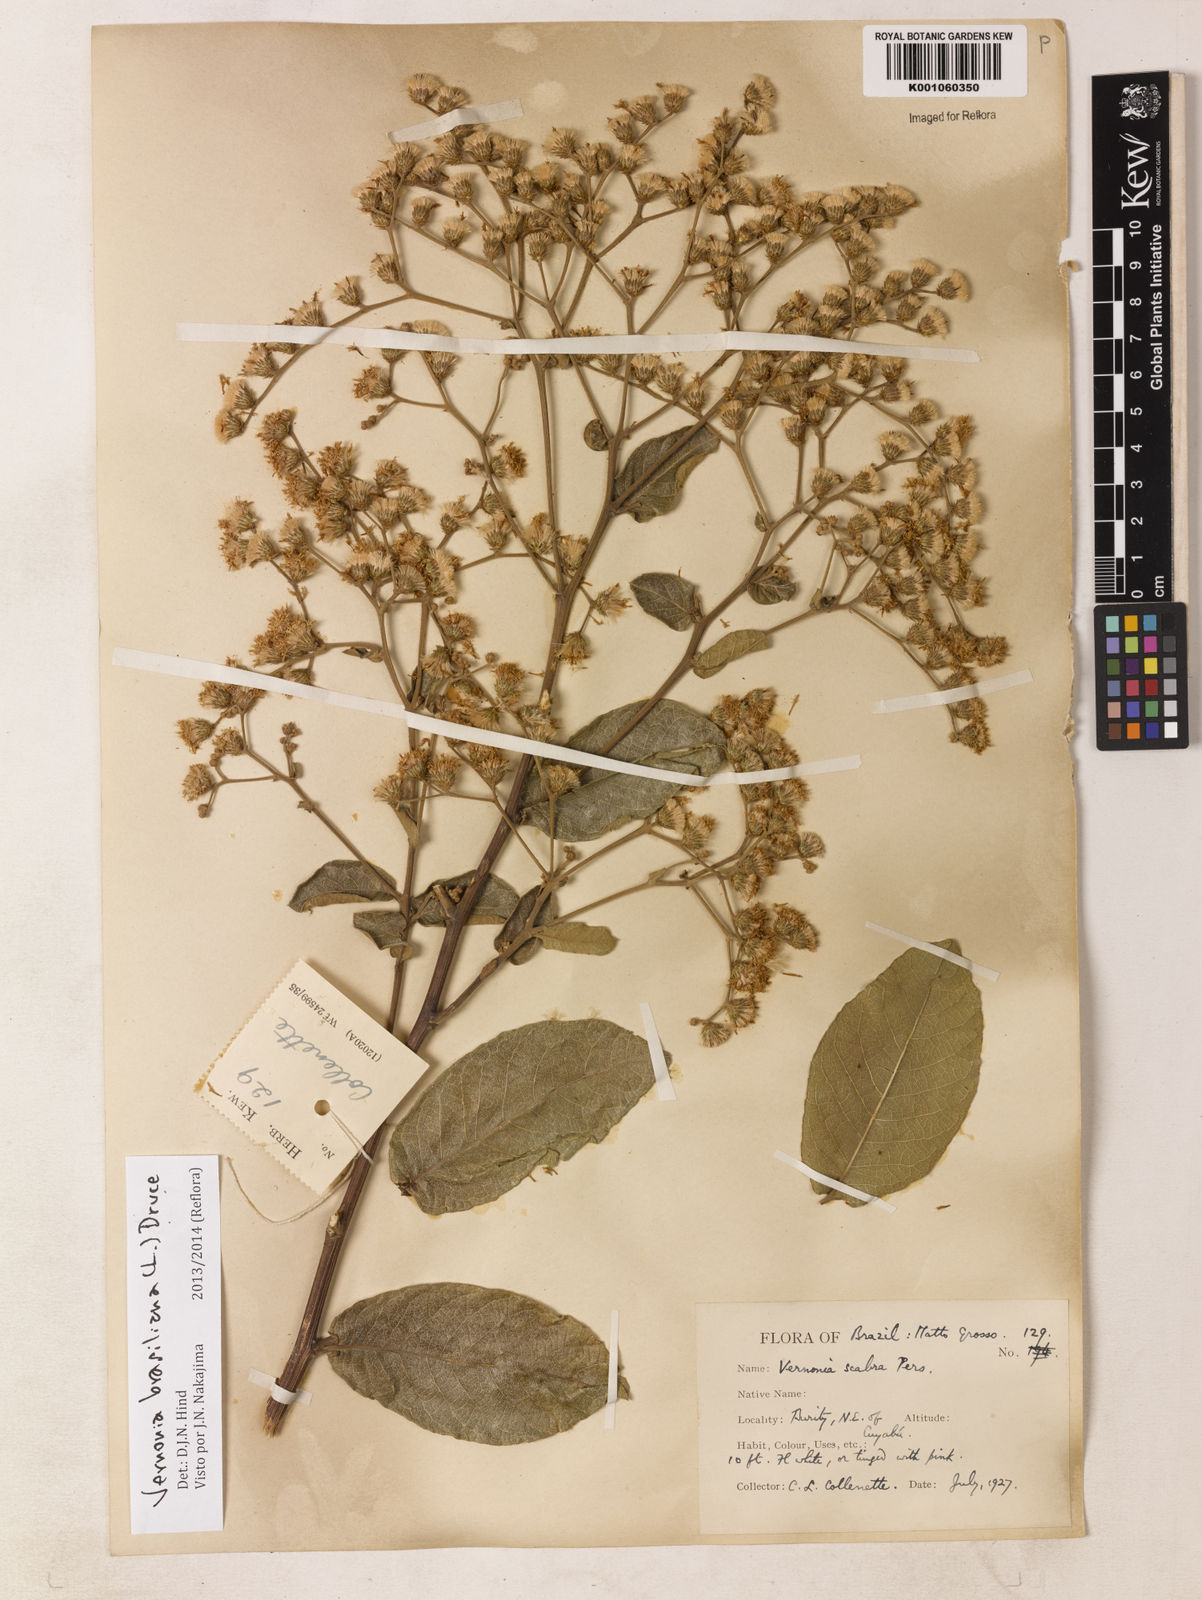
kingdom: Plantae
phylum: Tracheophyta
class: Magnoliopsida
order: Asterales
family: Asteraceae
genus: Vernonanthura
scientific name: Vernonanthura brasiliana
